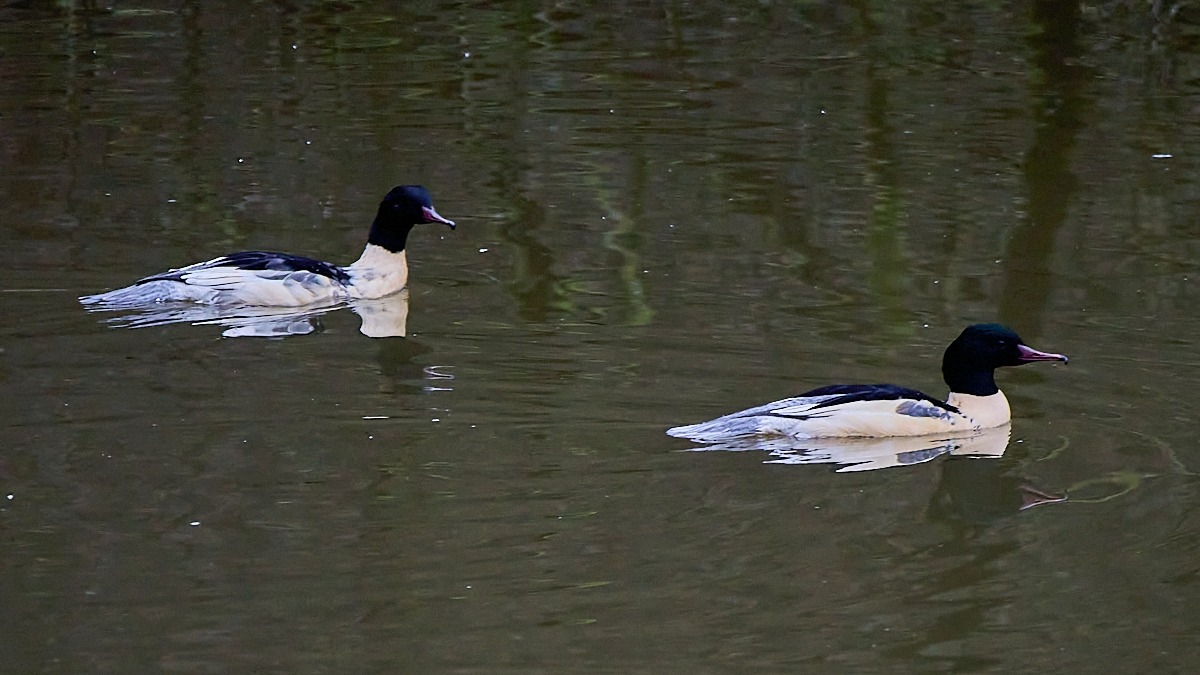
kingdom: Animalia
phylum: Chordata
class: Aves
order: Anseriformes
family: Anatidae
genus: Mergus
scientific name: Mergus merganser
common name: Stor skallesluger
